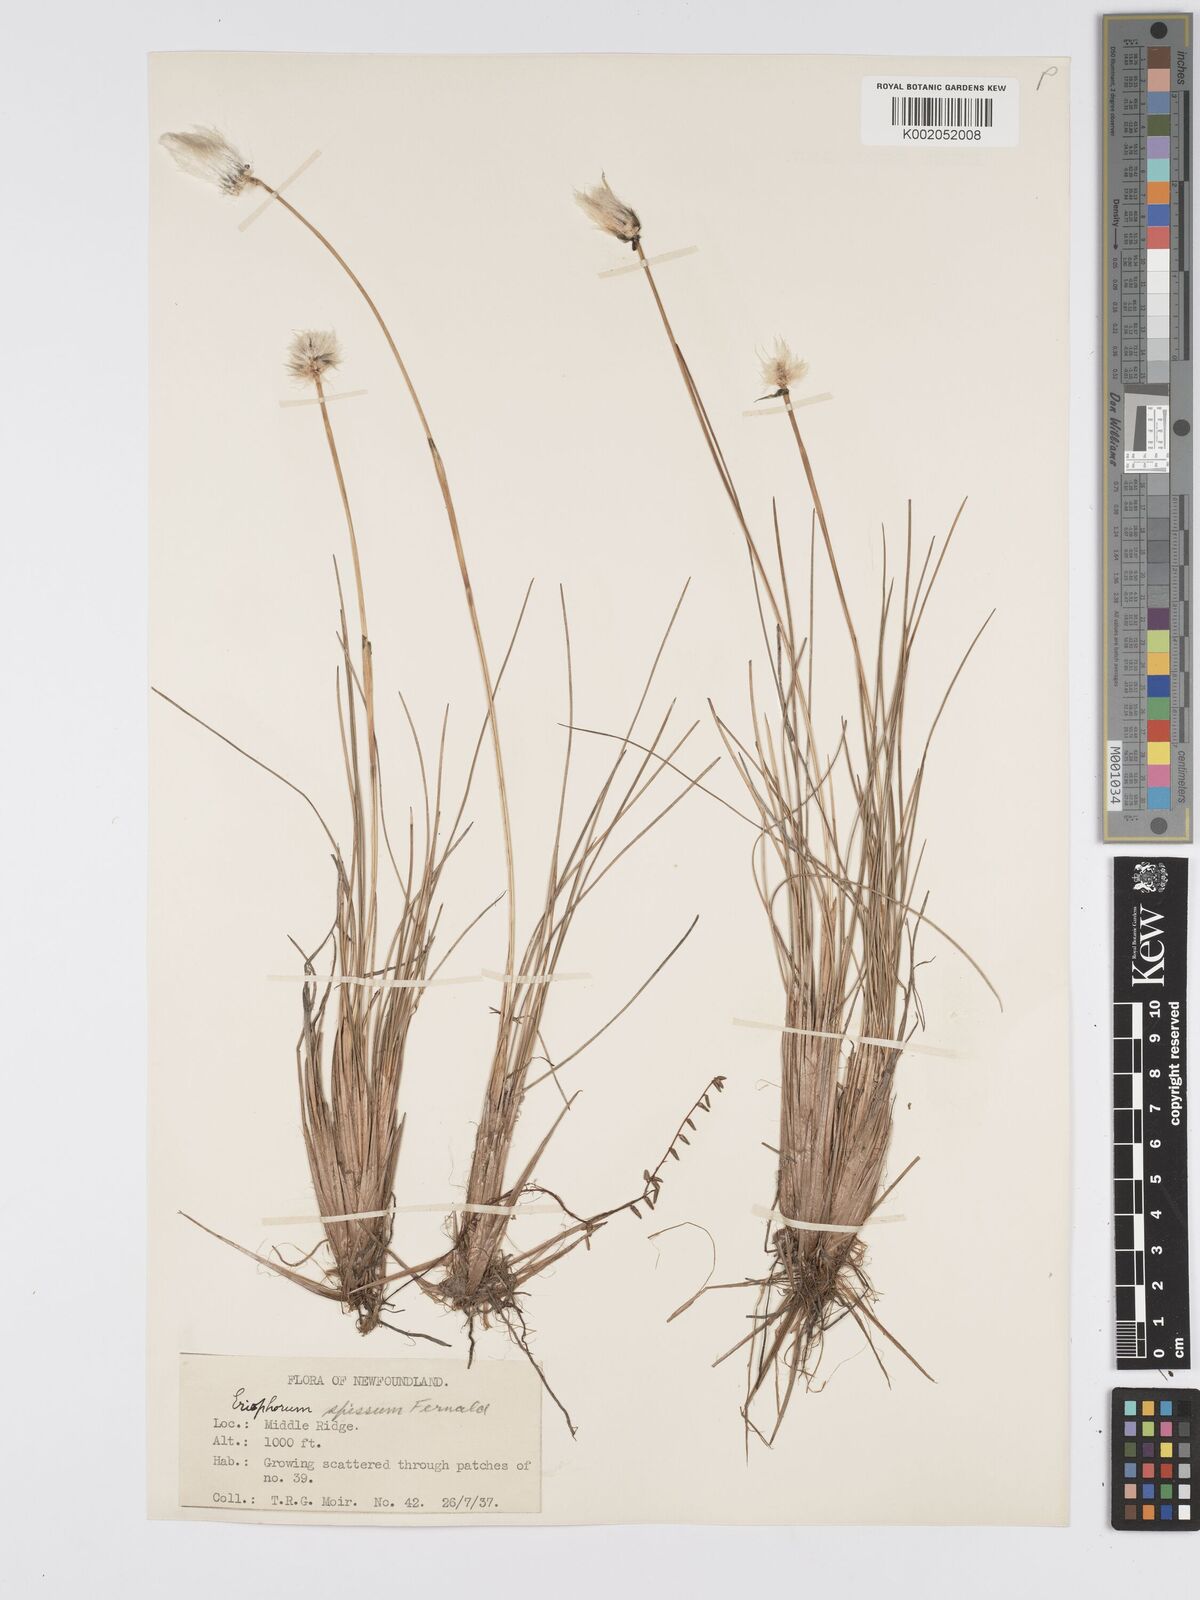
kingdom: Plantae
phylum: Tracheophyta
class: Liliopsida
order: Poales
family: Cyperaceae
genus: Eriophorum
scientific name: Eriophorum vaginatum
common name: Hare's-tail cottongrass
